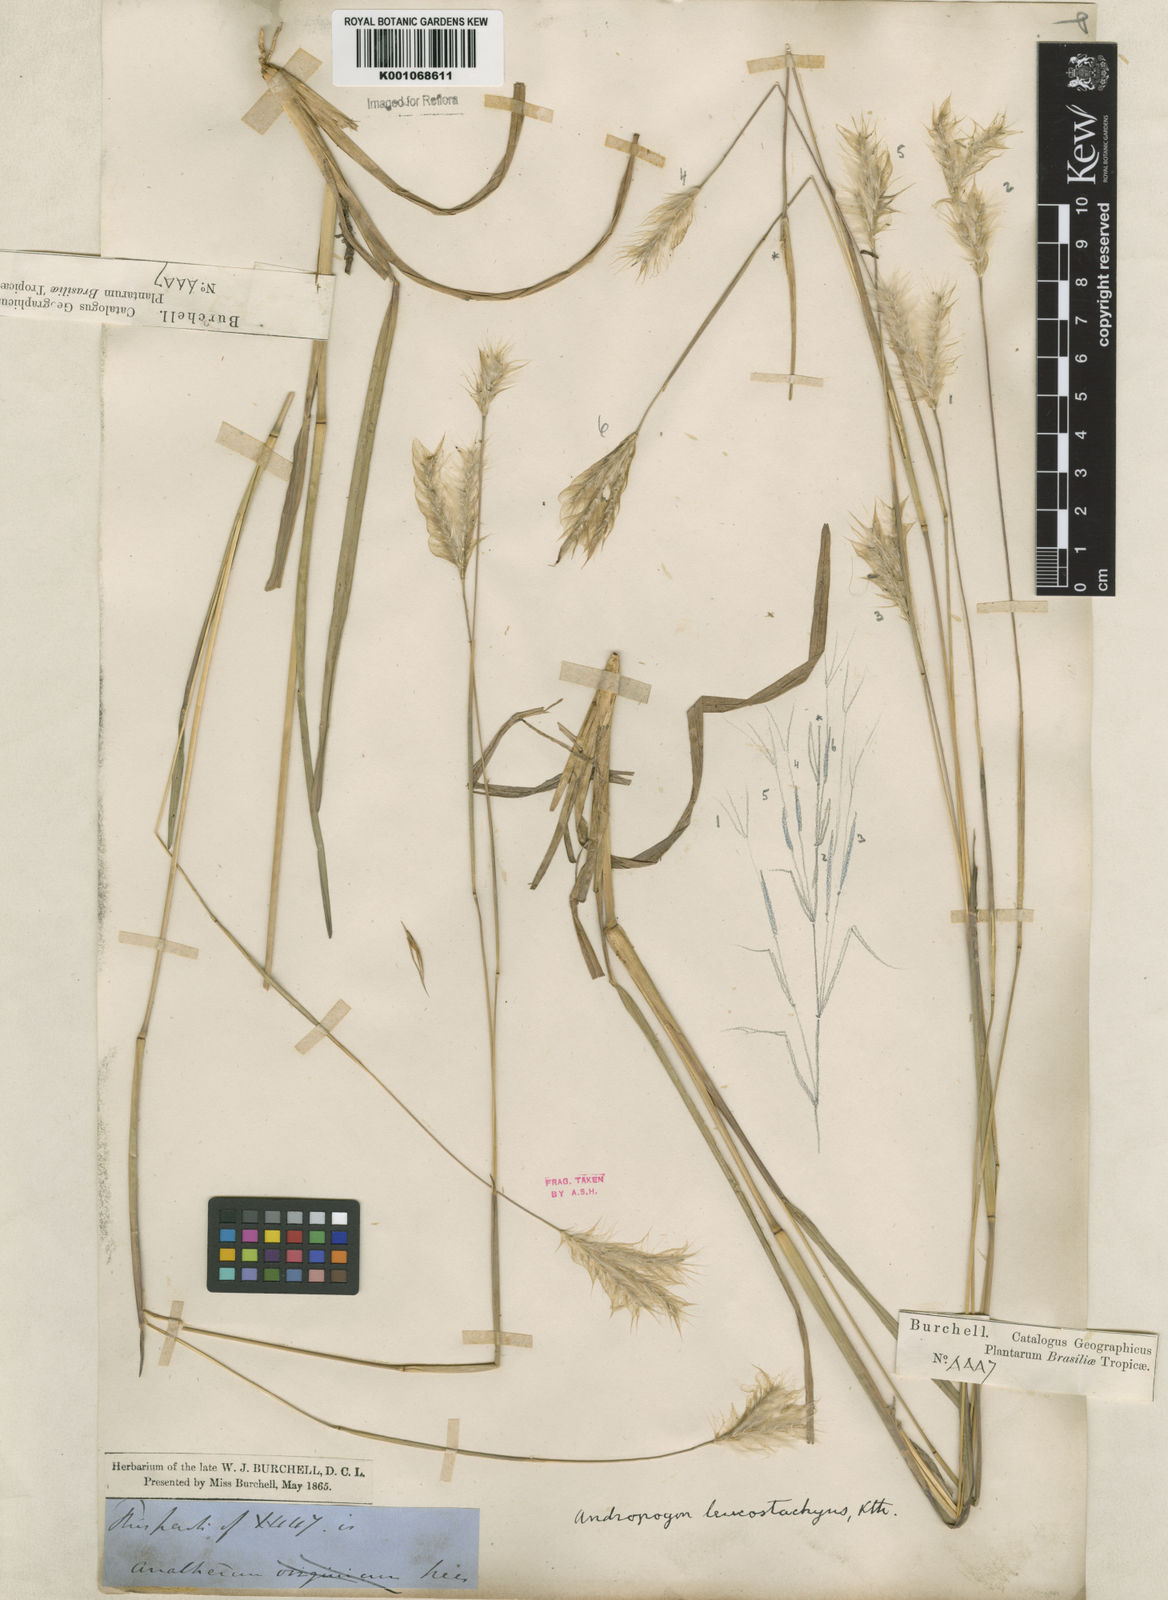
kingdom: Plantae
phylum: Tracheophyta
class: Liliopsida
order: Poales
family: Poaceae
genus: Andropogon
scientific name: Andropogon selloanus
